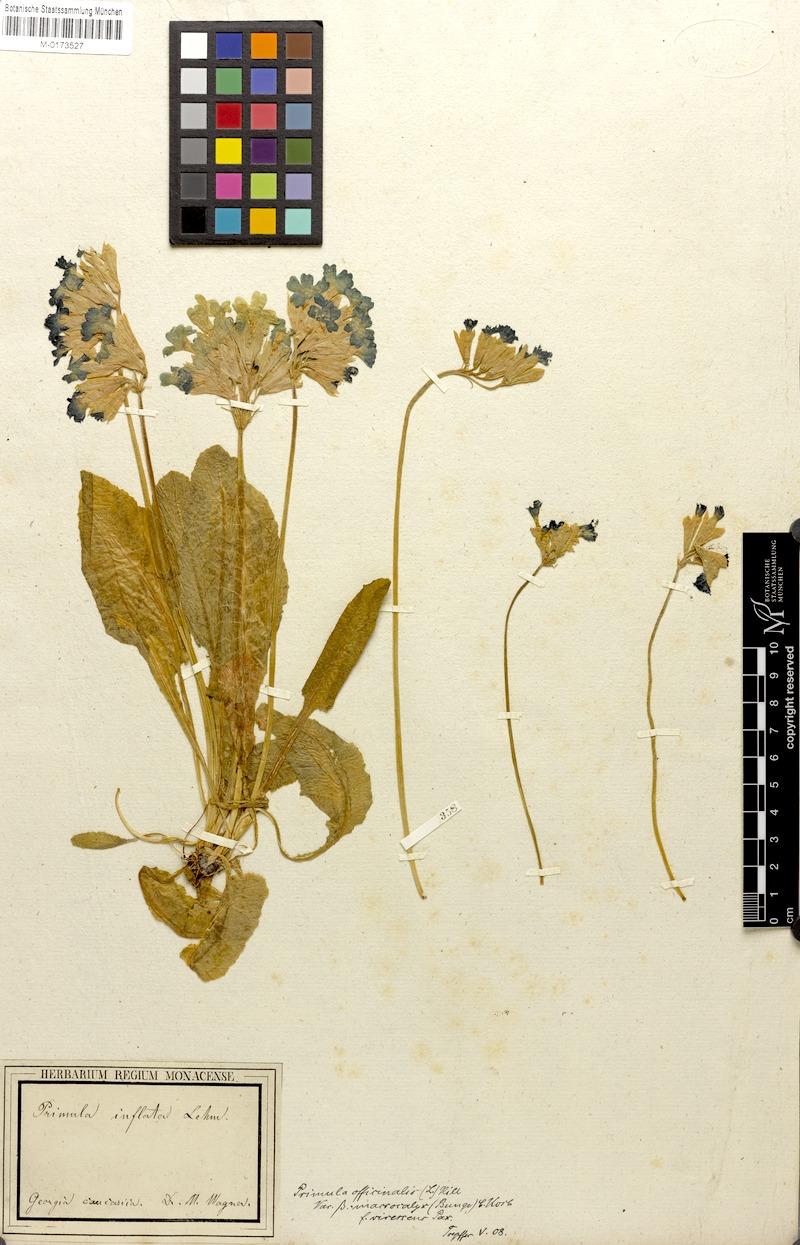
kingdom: Plantae
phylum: Tracheophyta
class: Magnoliopsida
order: Ericales
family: Primulaceae
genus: Primula
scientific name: Primula veris
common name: Cowslip
